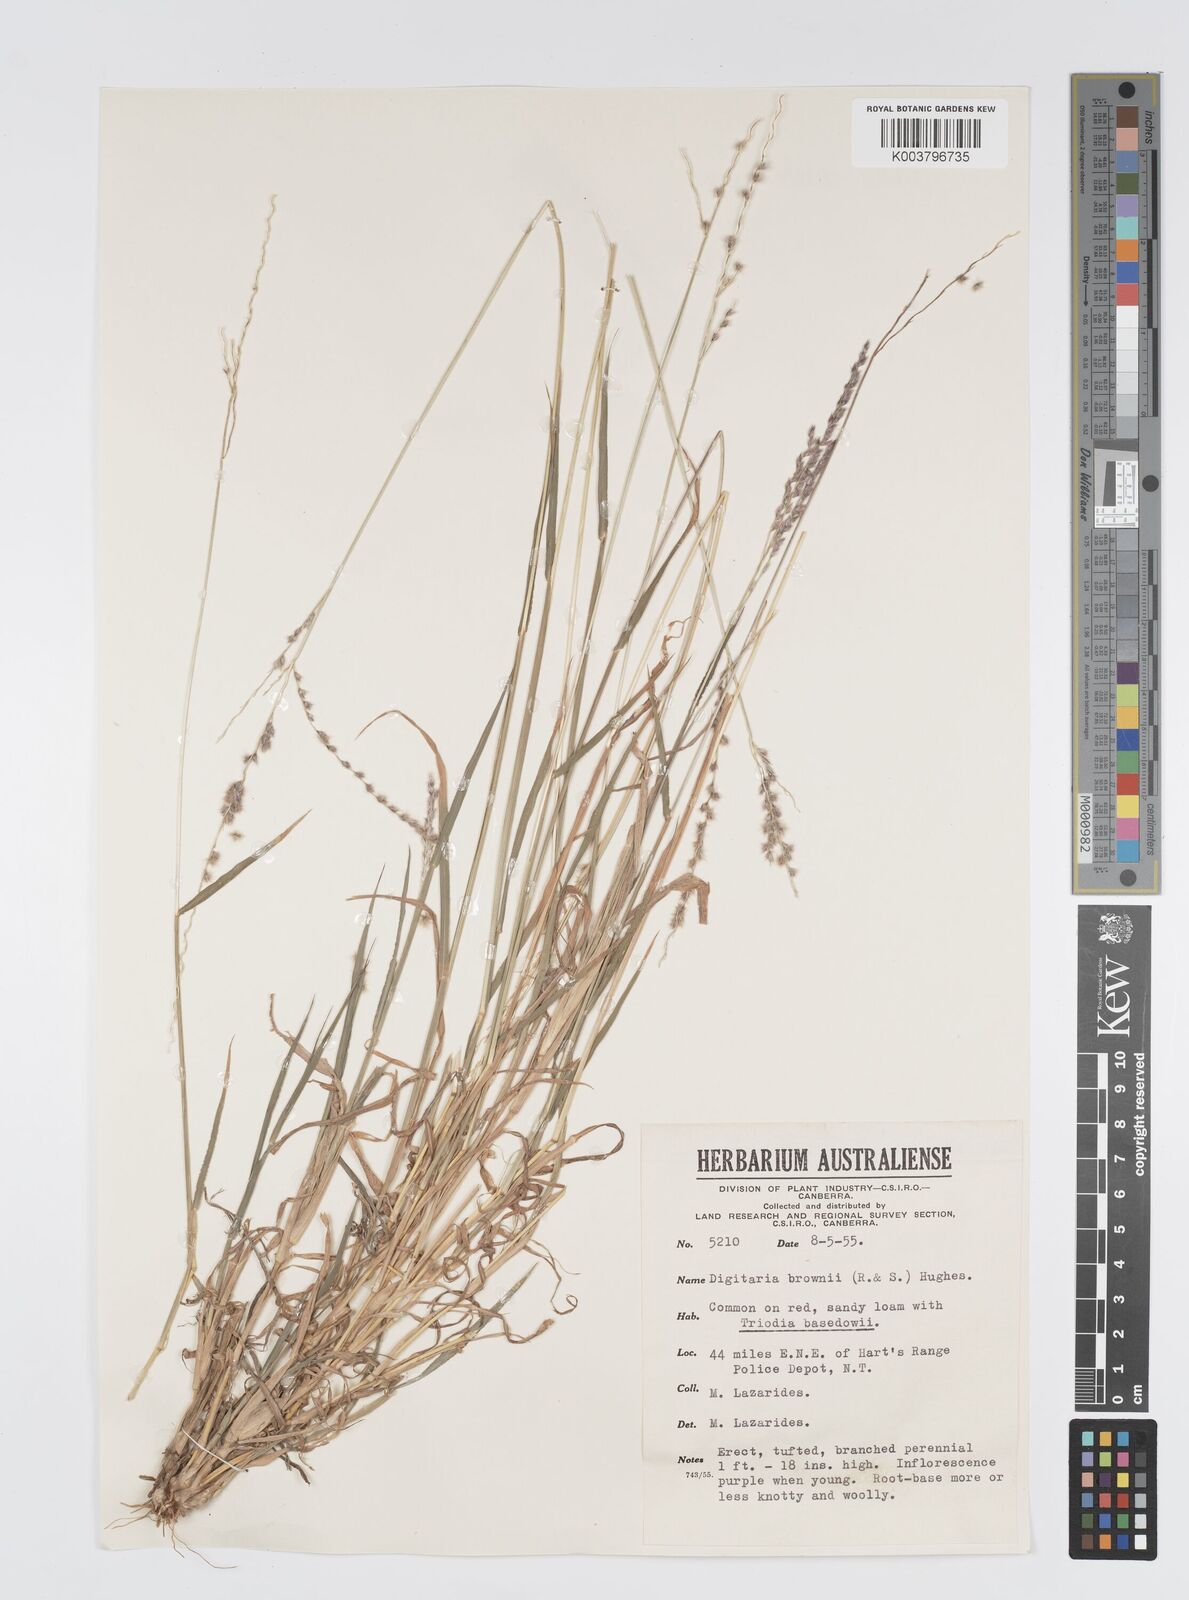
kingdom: Plantae
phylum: Tracheophyta
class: Liliopsida
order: Poales
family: Poaceae
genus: Digitaria
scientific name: Digitaria brownii
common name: Cotton grass
